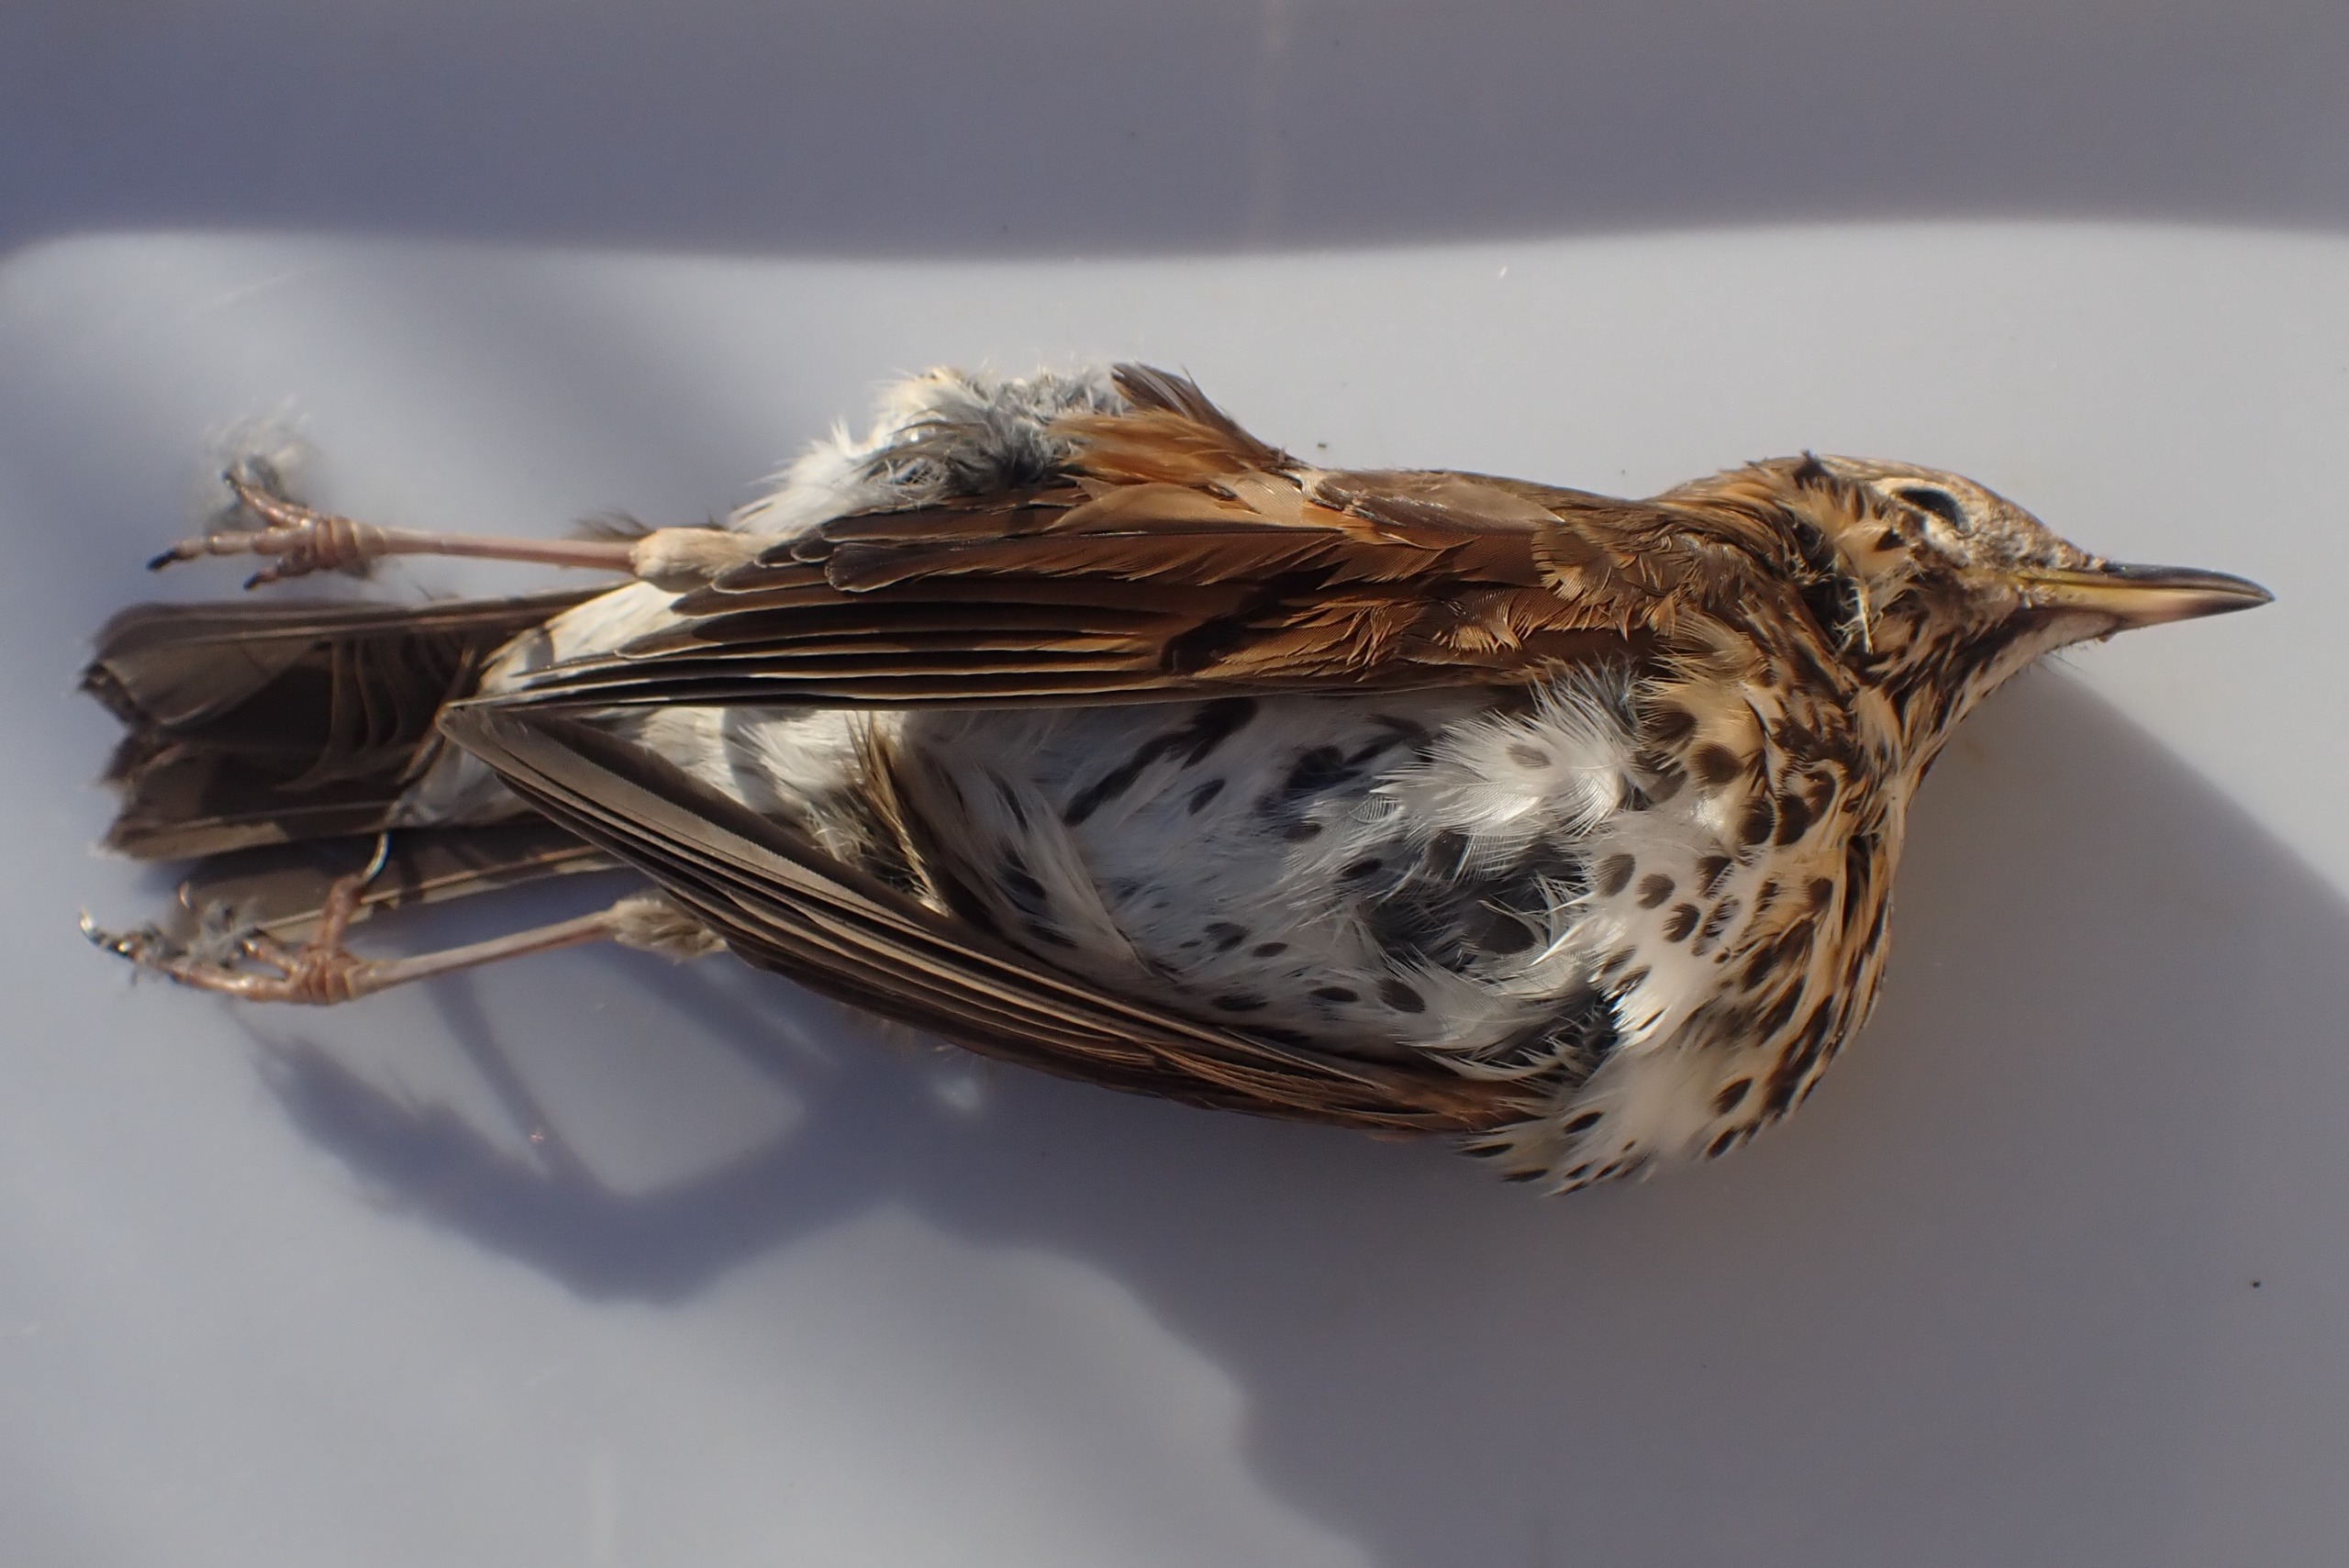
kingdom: Animalia
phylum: Chordata
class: Aves
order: Passeriformes
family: Turdidae
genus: Turdus
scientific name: Turdus philomelos
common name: Sangdrossel
